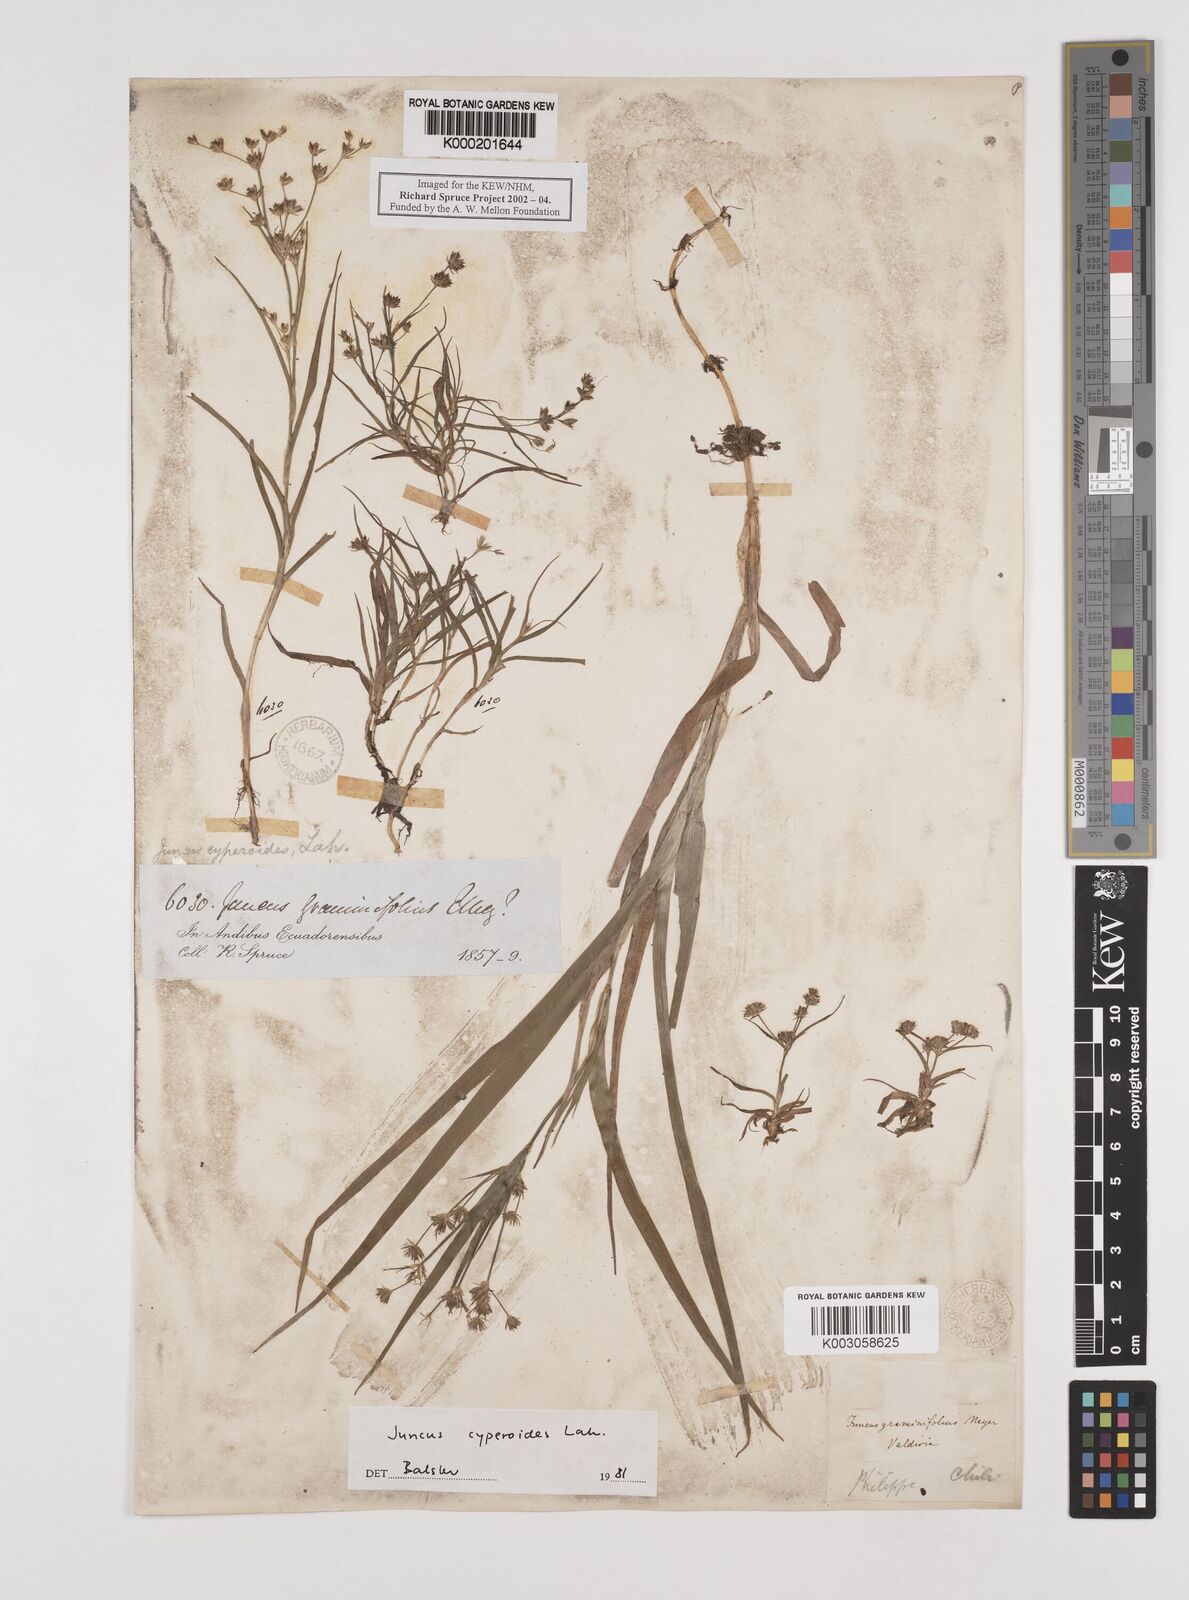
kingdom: Plantae
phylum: Tracheophyta
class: Liliopsida
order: Poales
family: Juncaceae
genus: Juncus
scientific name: Juncus cyperoides
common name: Forbestown rush
